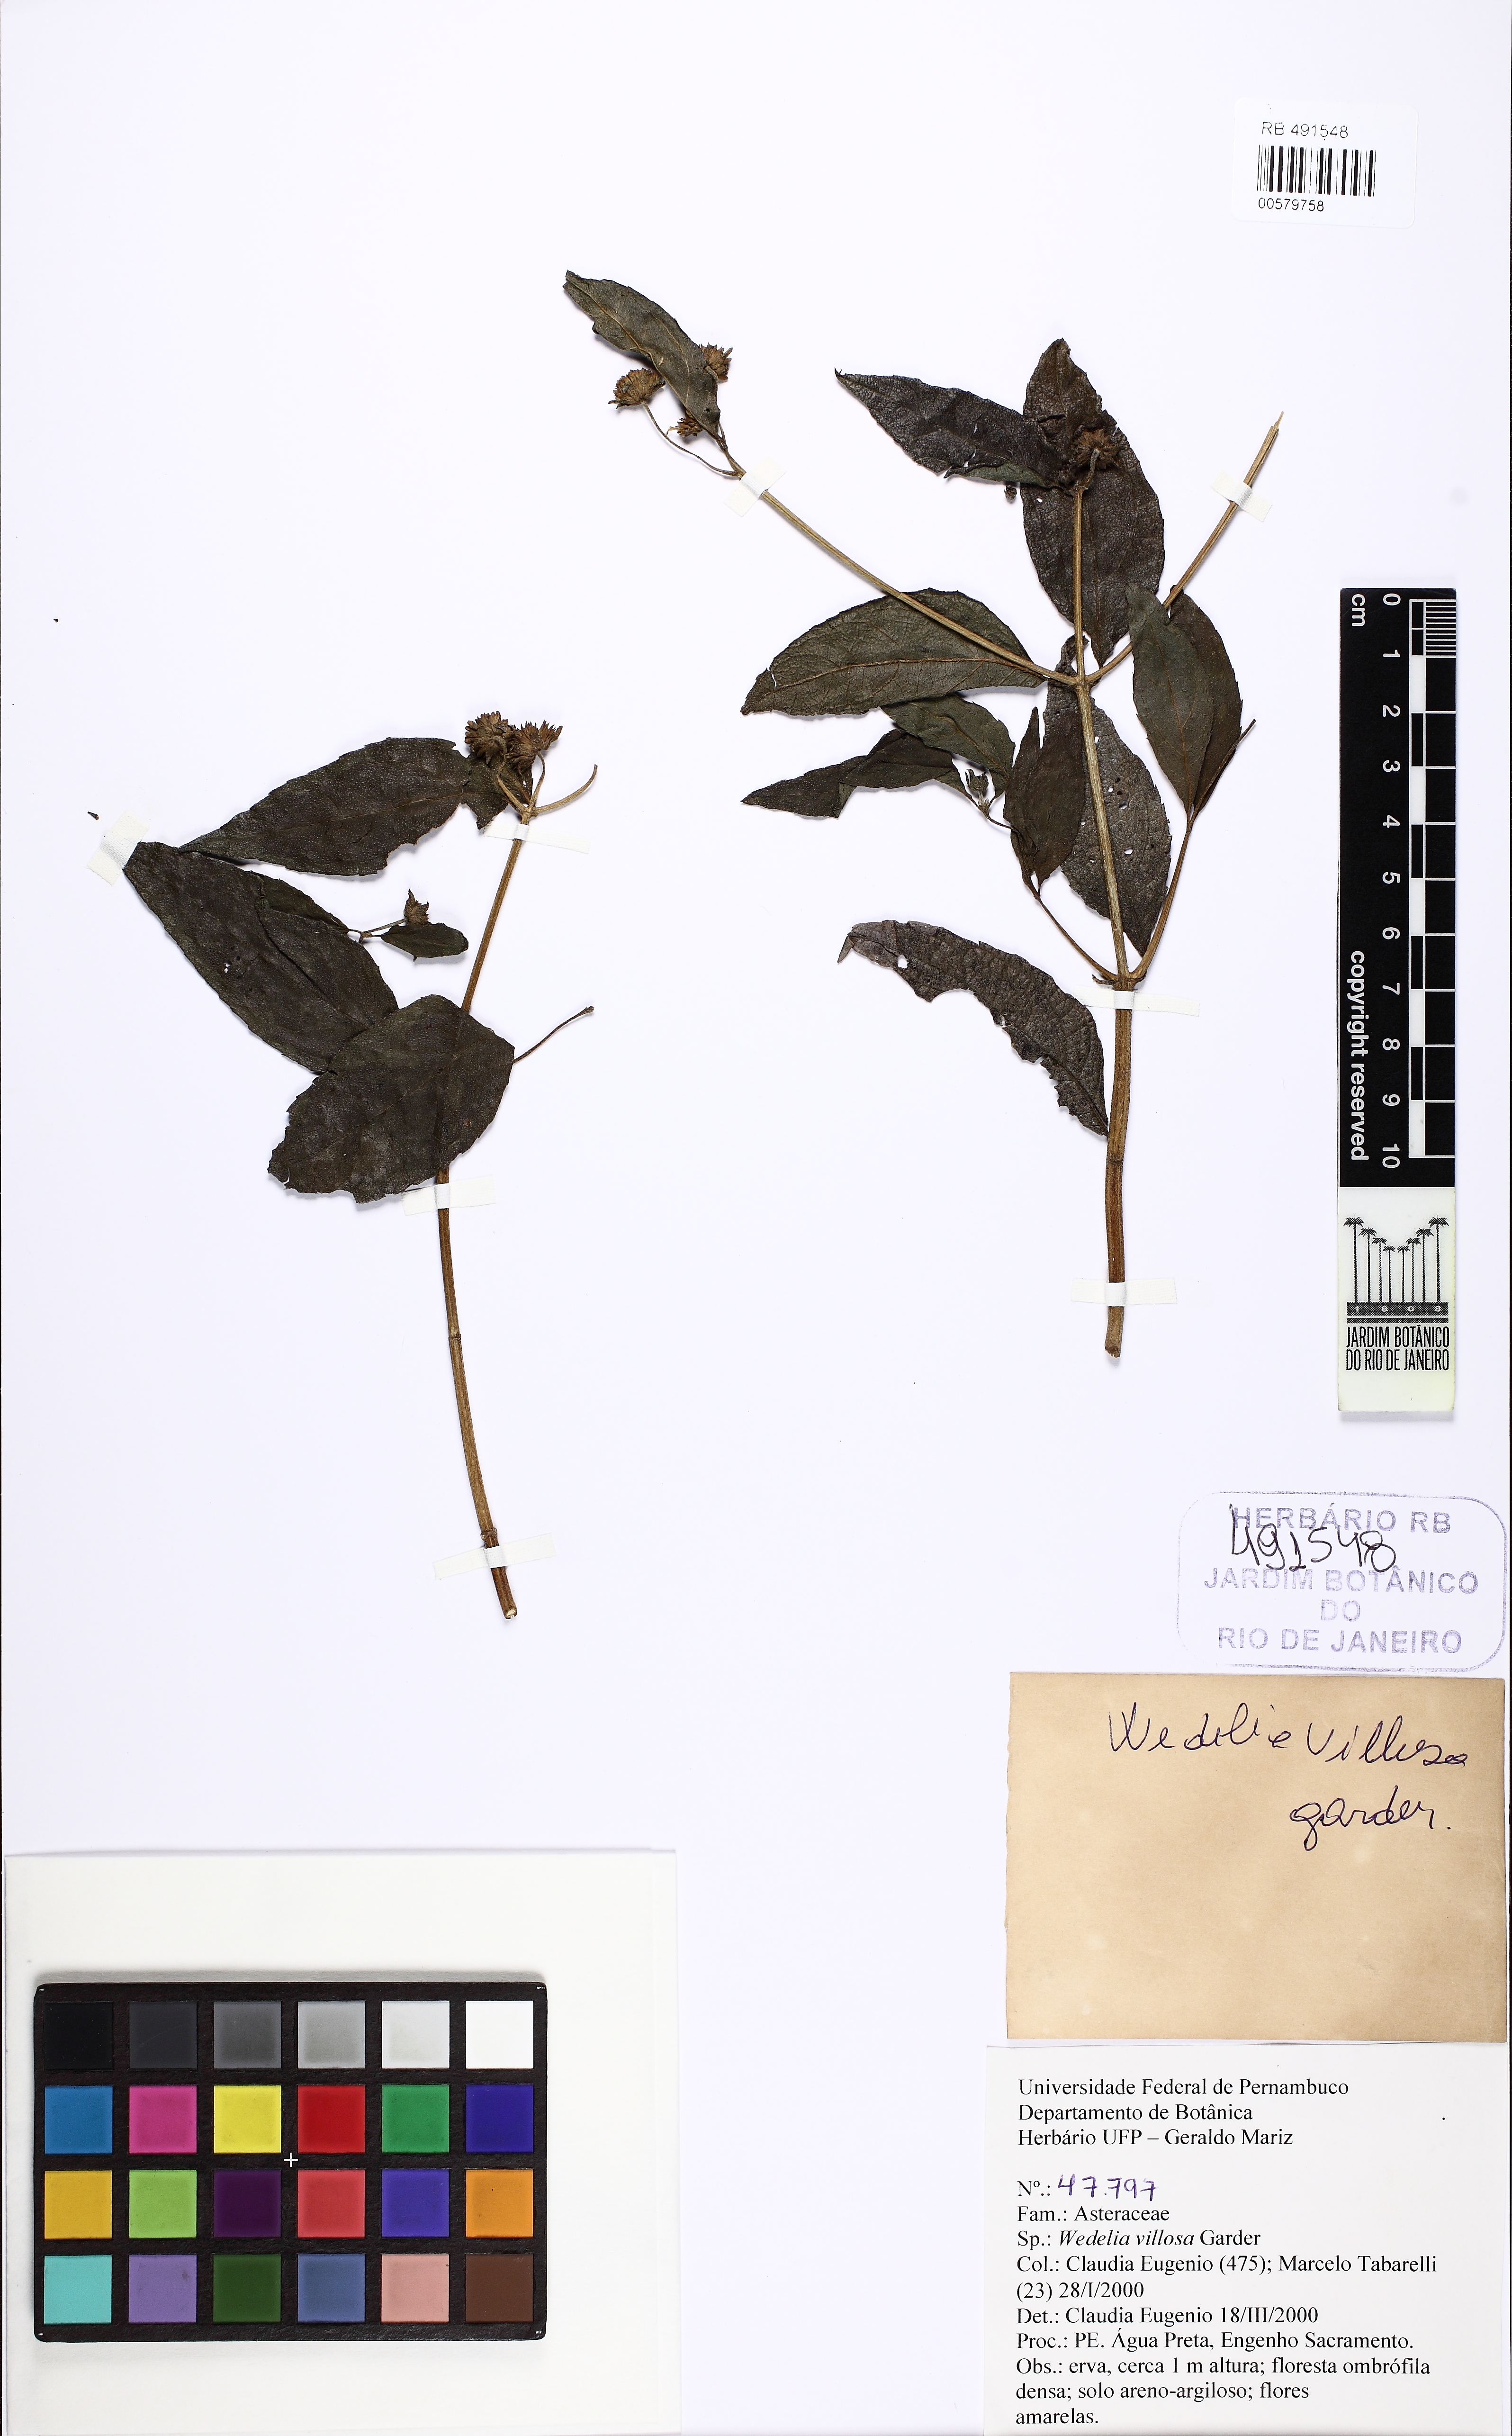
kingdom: Plantae
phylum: Tracheophyta
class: Magnoliopsida
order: Asterales
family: Asteraceae
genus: Wedelia
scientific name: Wedelia villosa
